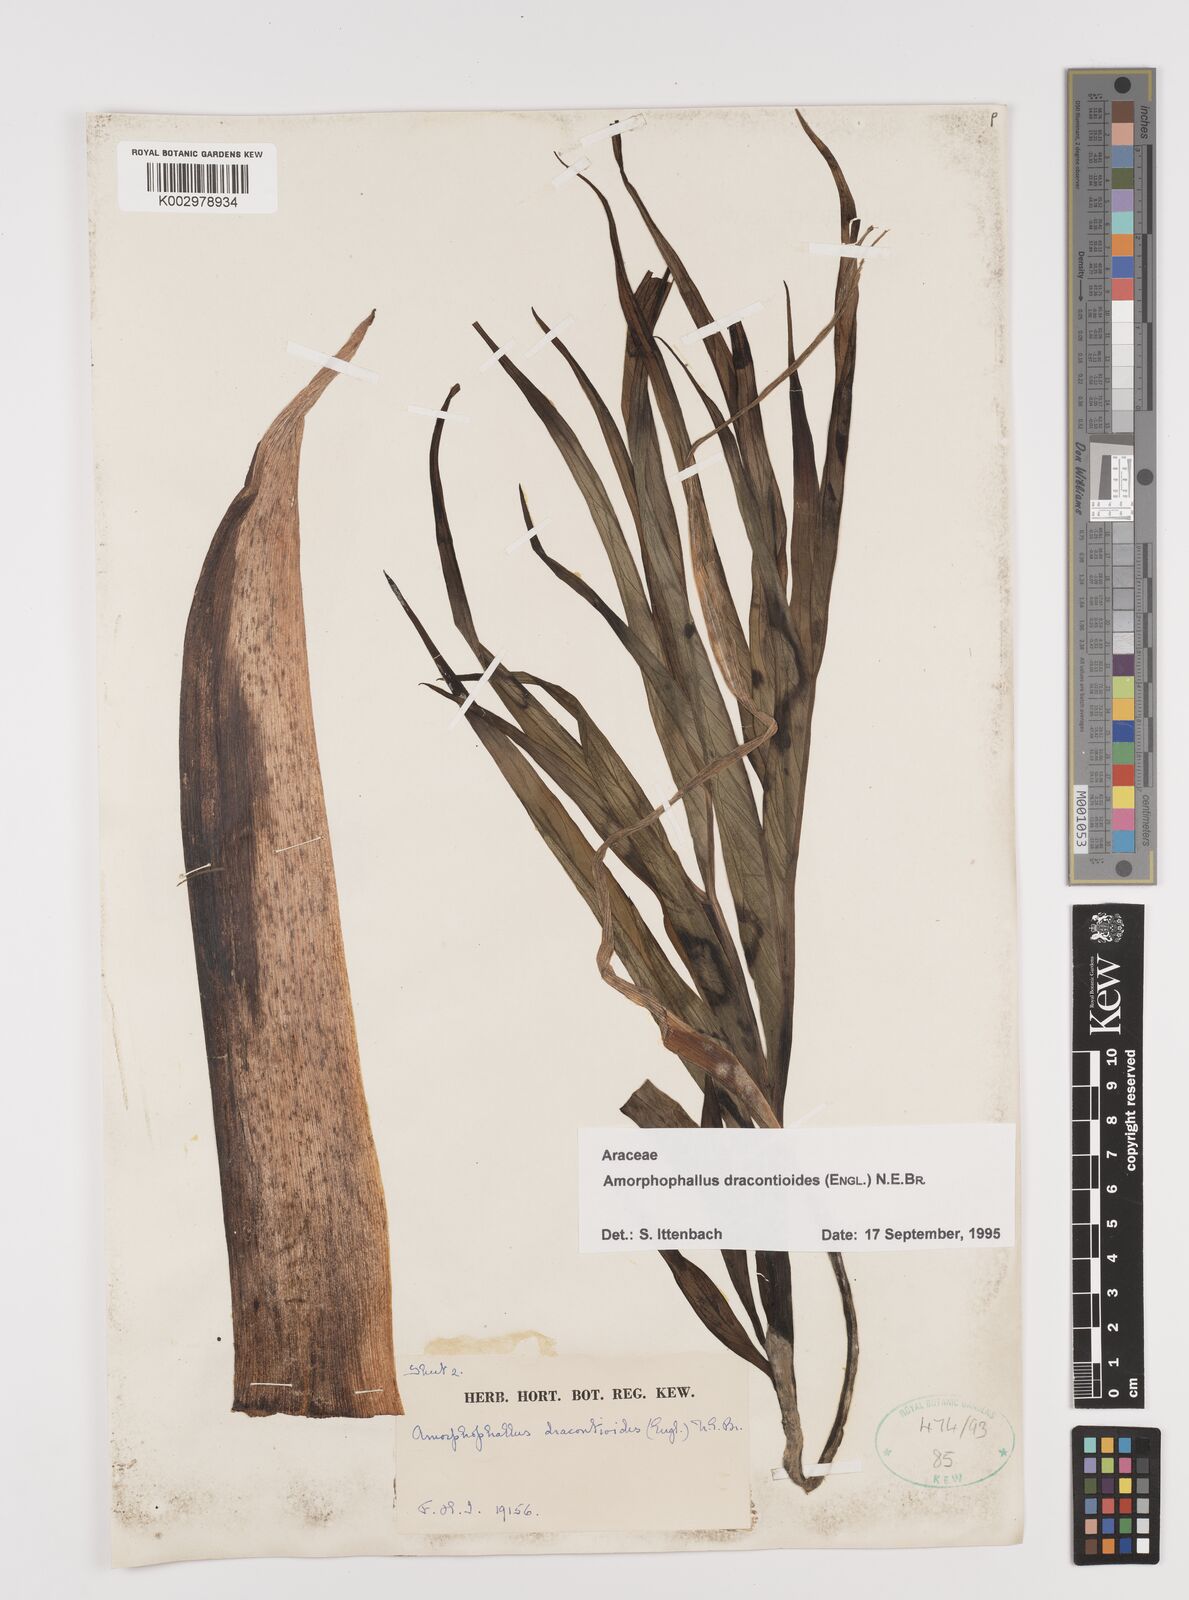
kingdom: Plantae
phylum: Tracheophyta
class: Liliopsida
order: Alismatales
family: Araceae
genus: Amorphophallus
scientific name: Amorphophallus dracontioides
